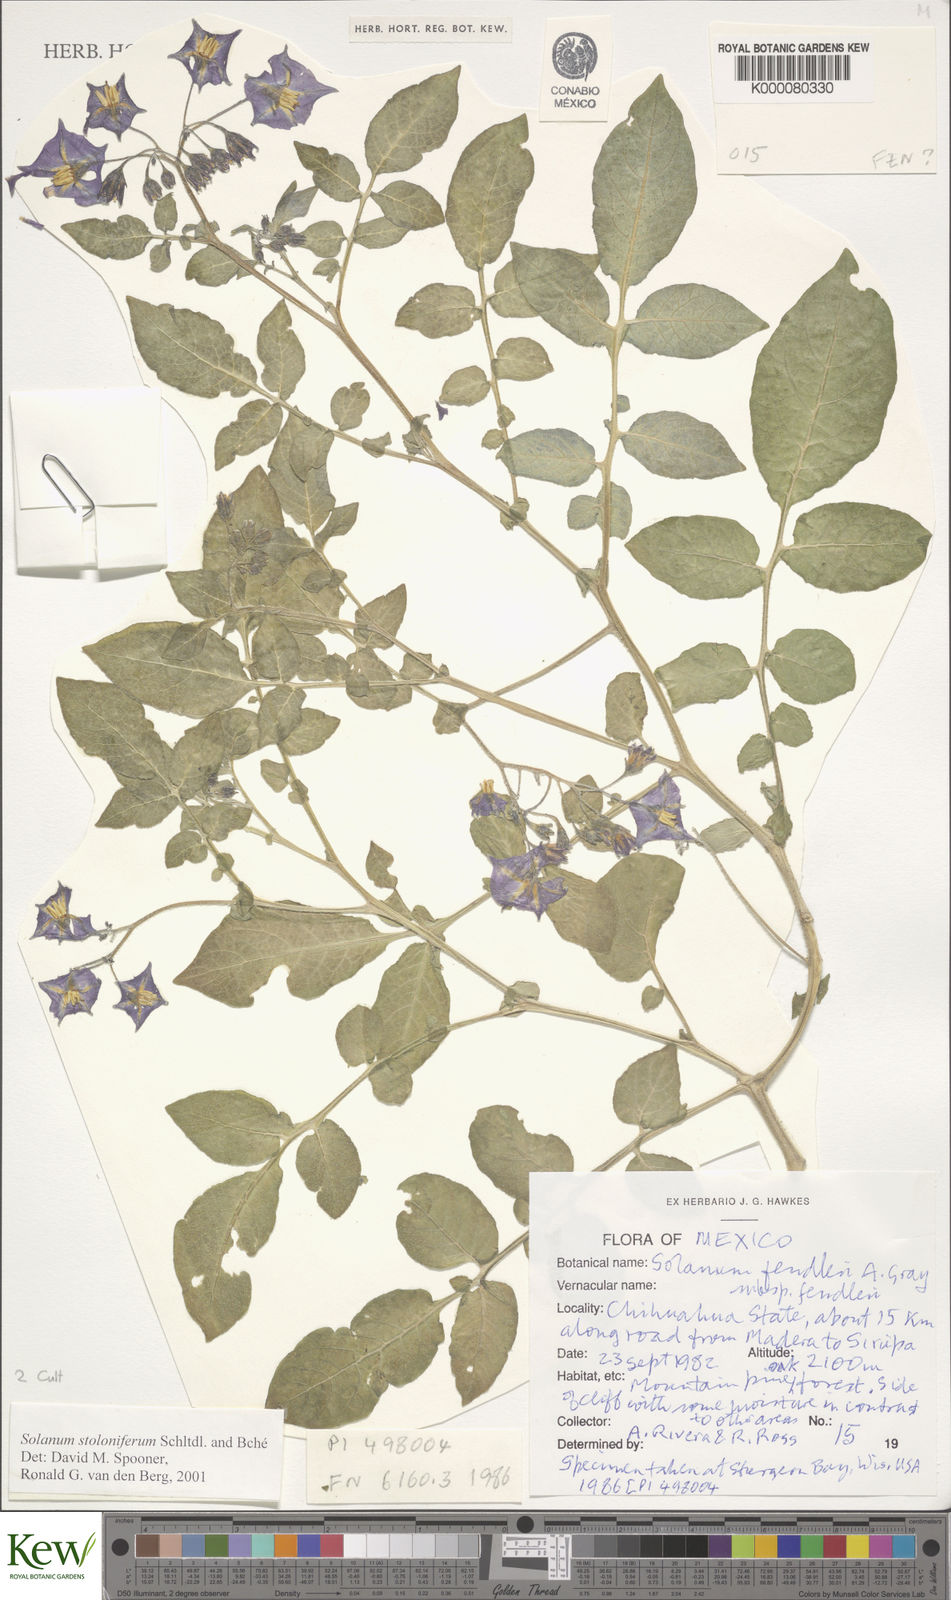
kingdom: Plantae
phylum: Tracheophyta
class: Magnoliopsida
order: Solanales
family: Solanaceae
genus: Solanum
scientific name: Solanum stoloniferum
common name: Fendler's nighshade
